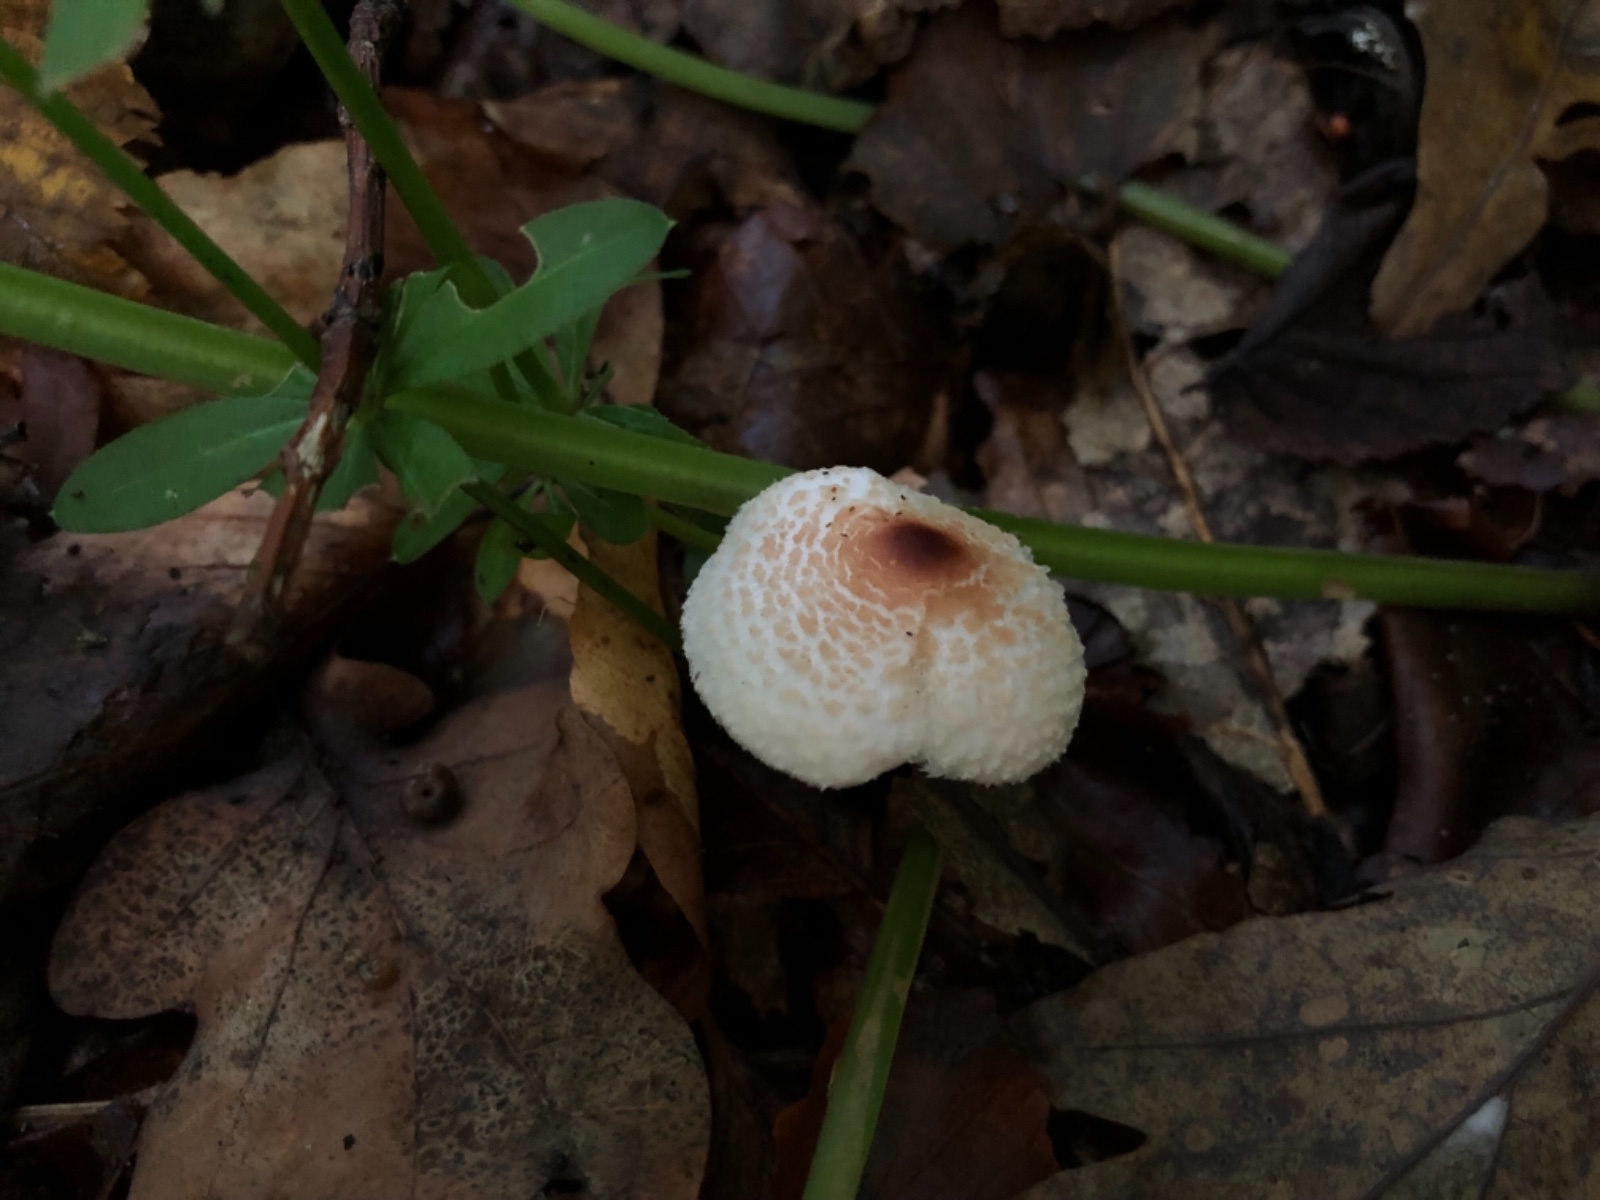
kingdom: Fungi
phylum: Basidiomycota
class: Agaricomycetes
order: Agaricales
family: Agaricaceae
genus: Lepiota
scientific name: Lepiota cristata
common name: stinkende parasolhat
